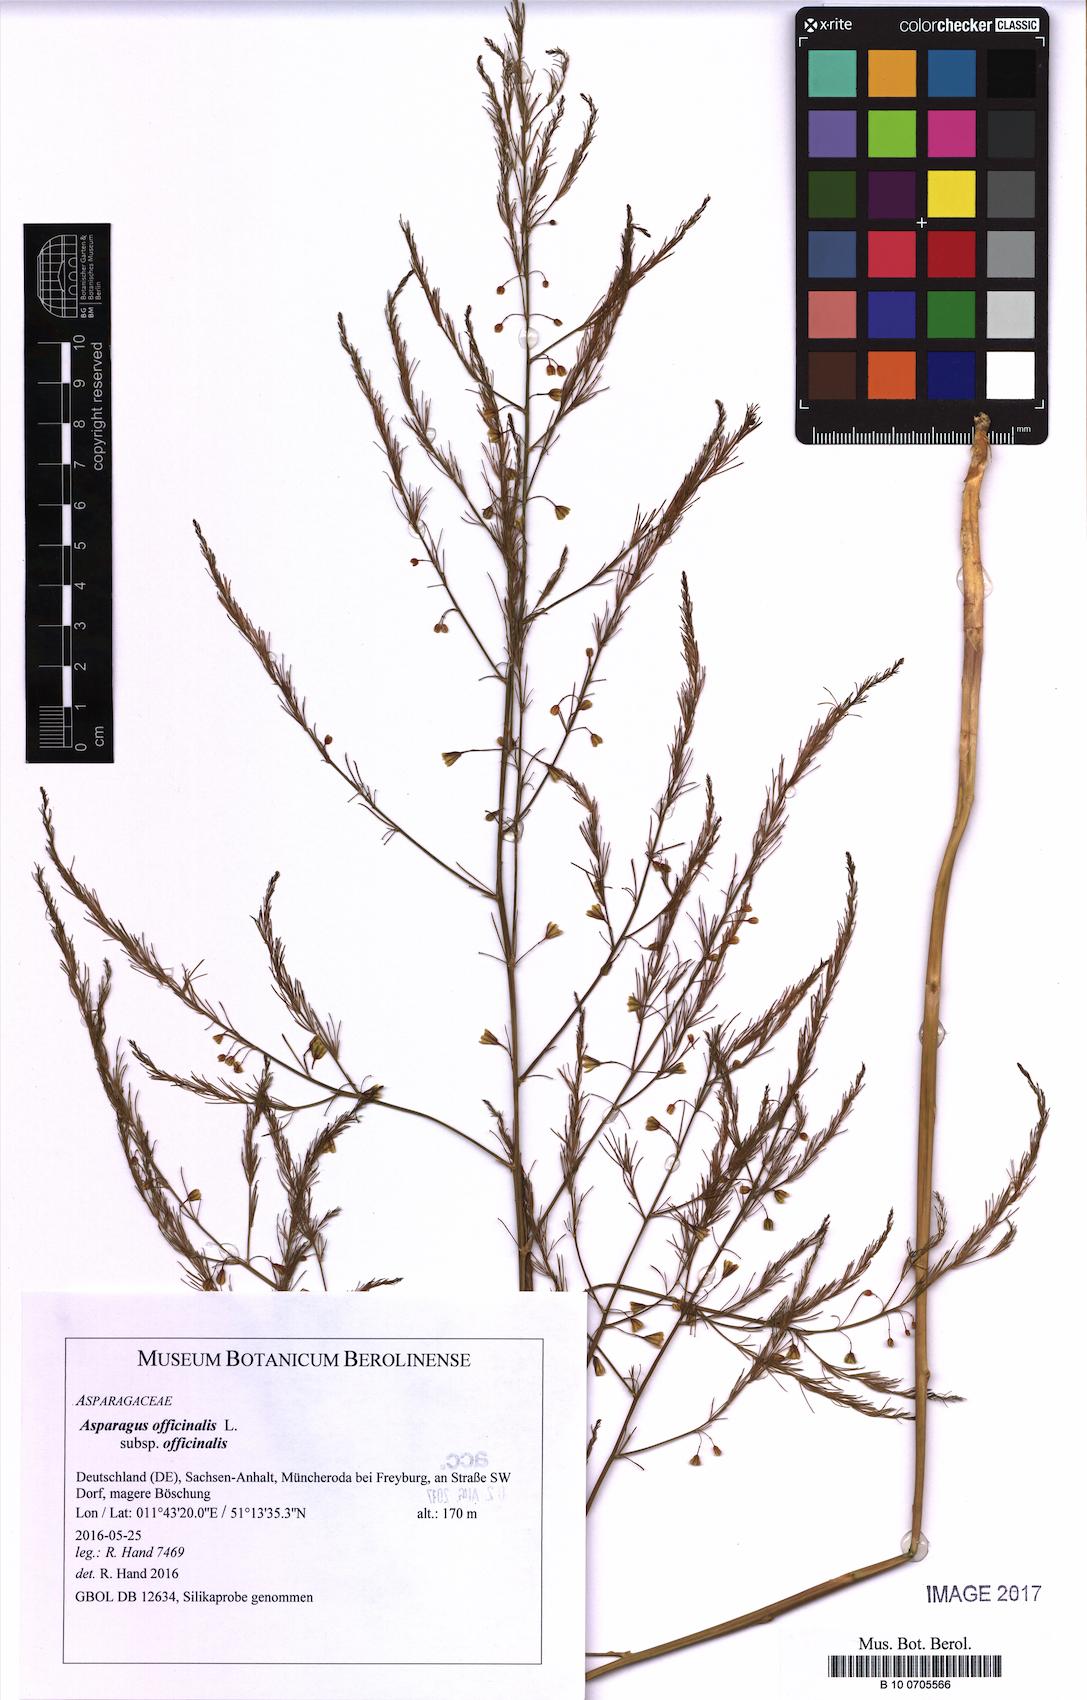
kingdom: Plantae
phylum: Tracheophyta
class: Liliopsida
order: Asparagales
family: Asparagaceae
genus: Asparagus
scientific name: Asparagus officinalis
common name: Garden asparagus
